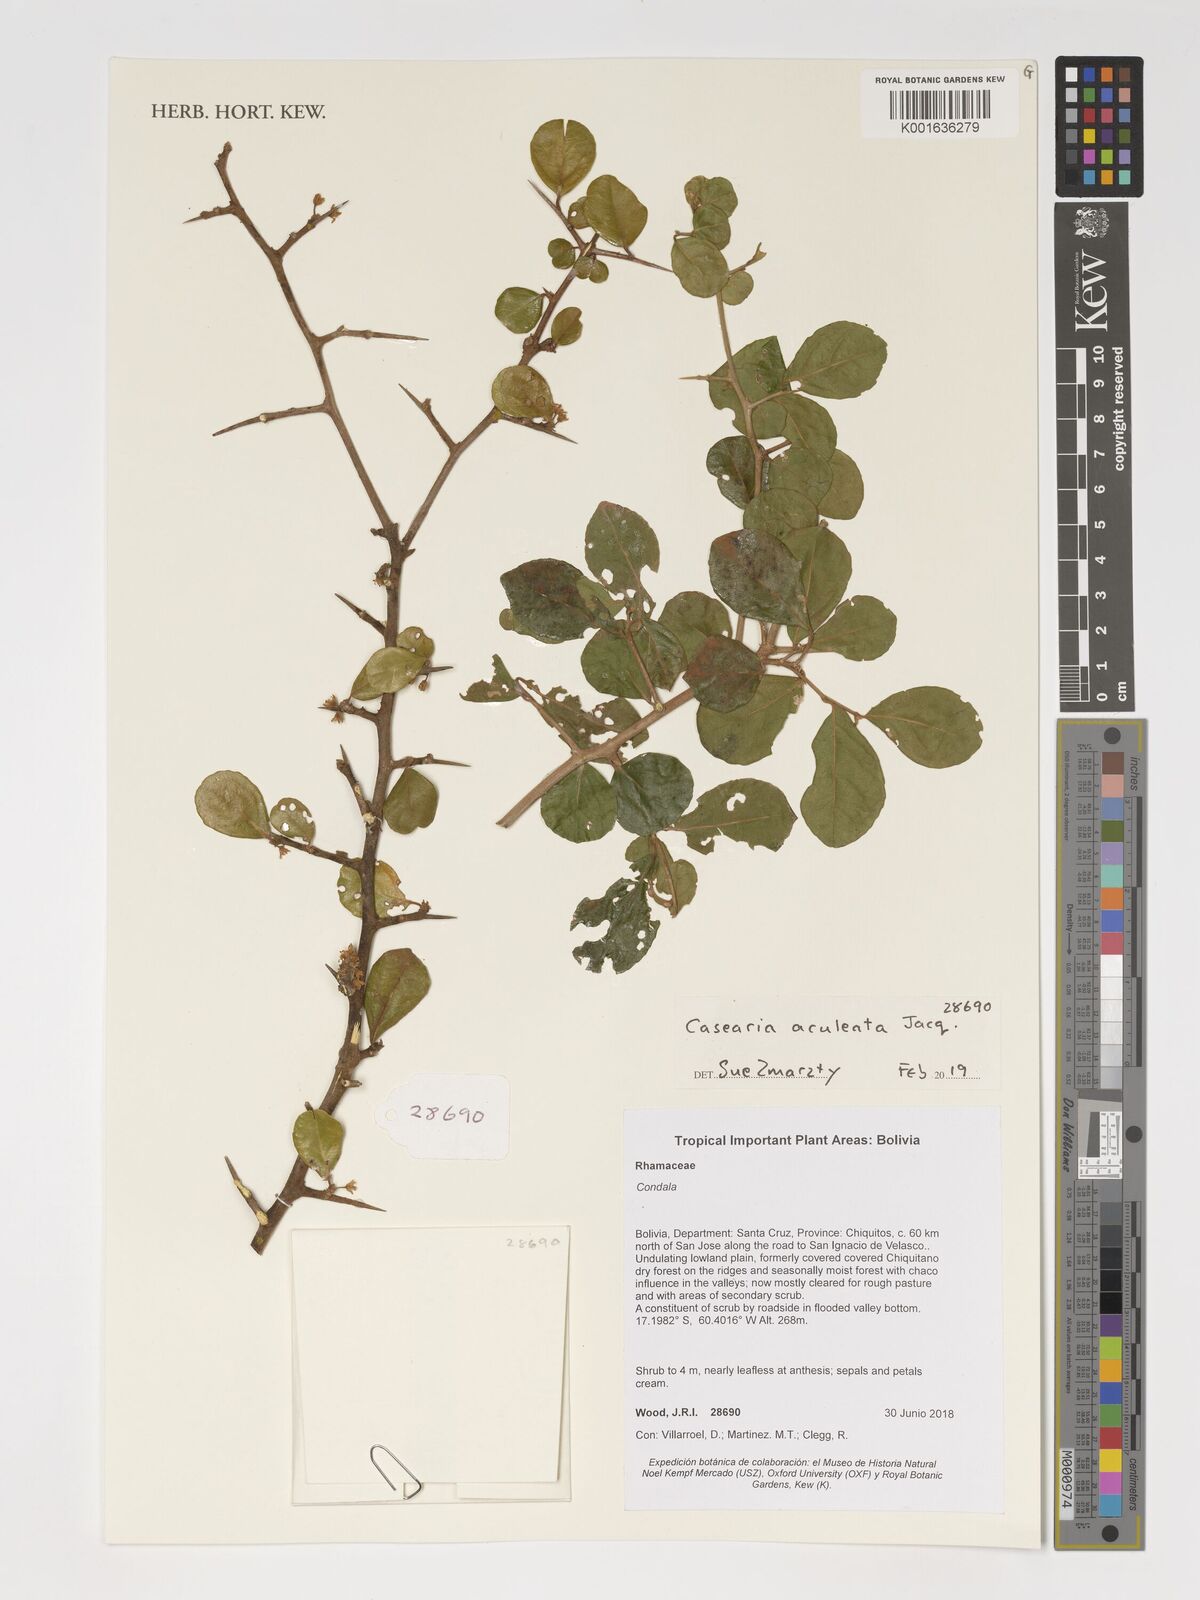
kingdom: Plantae
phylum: Tracheophyta
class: Magnoliopsida
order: Malpighiales
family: Salicaceae
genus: Casearia
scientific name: Casearia aculeata
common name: Cockspur
